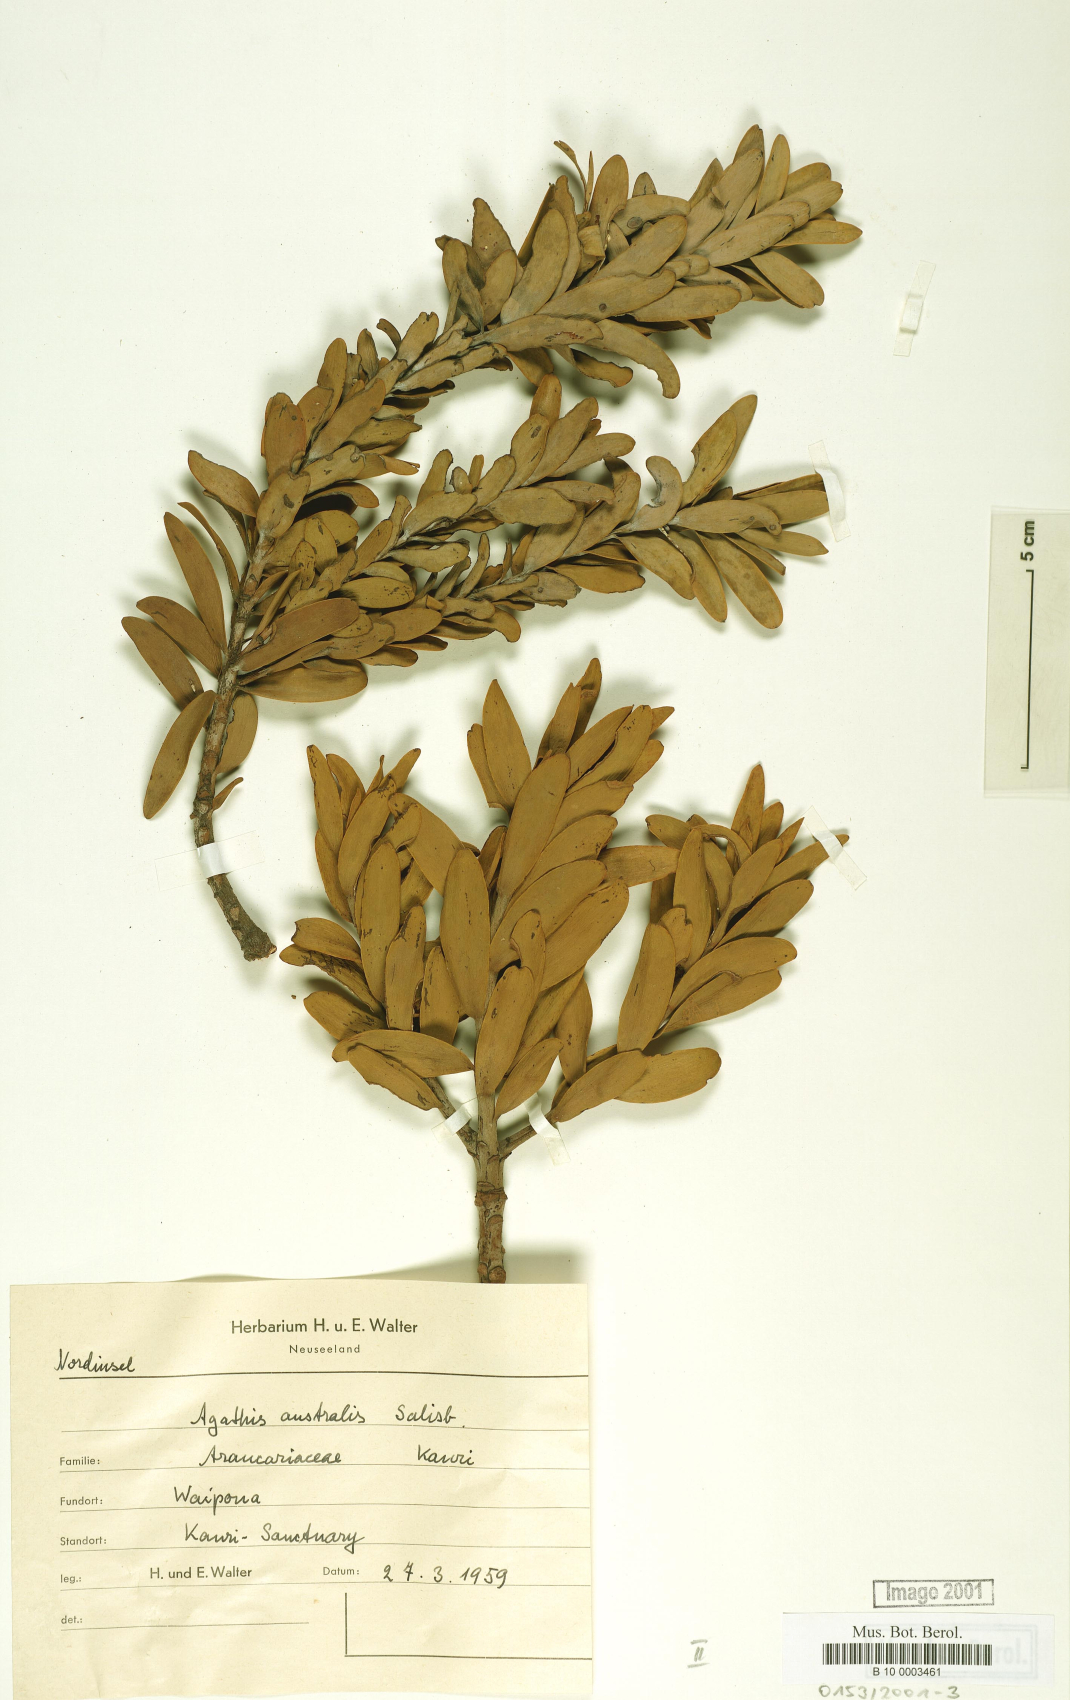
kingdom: Plantae
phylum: Tracheophyta
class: Pinopsida
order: Pinales
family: Araucariaceae
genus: Agathis
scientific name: Agathis australis
